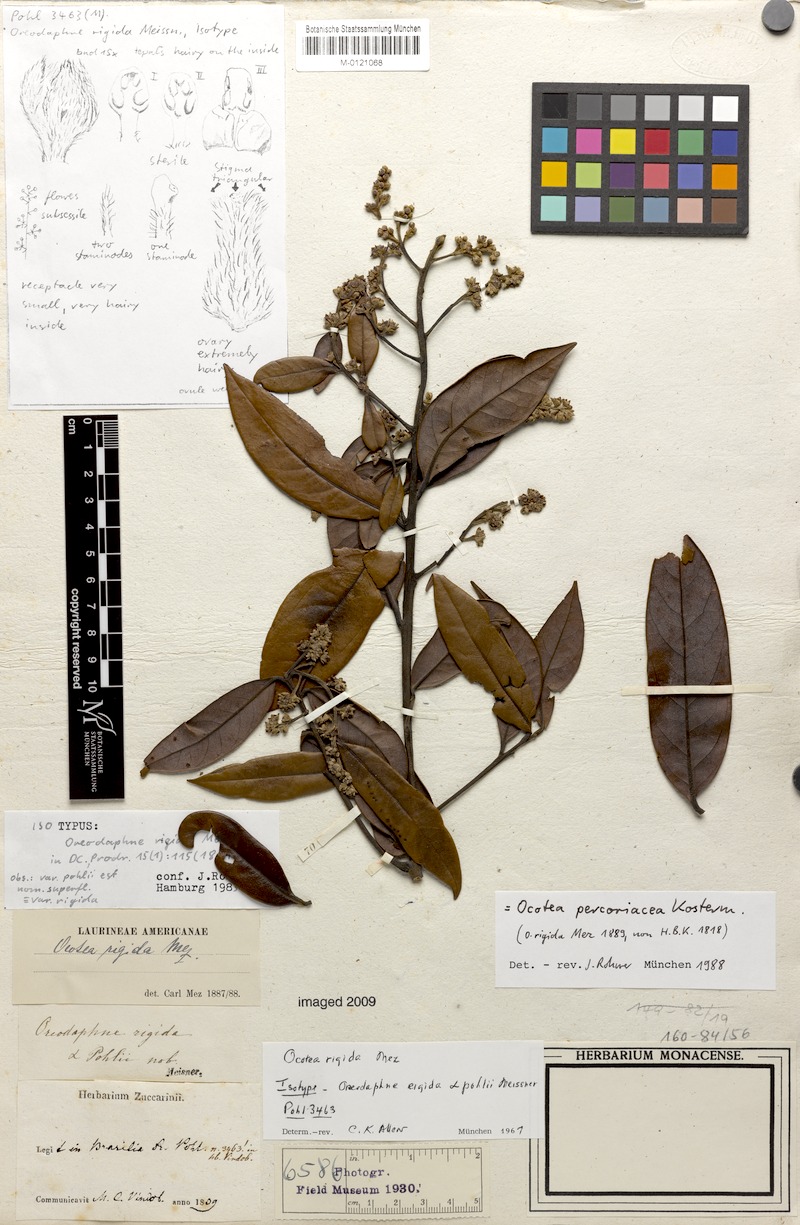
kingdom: Plantae
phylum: Tracheophyta
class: Magnoliopsida
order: Laurales
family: Lauraceae
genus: Ocotea
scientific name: Ocotea percoriacea
